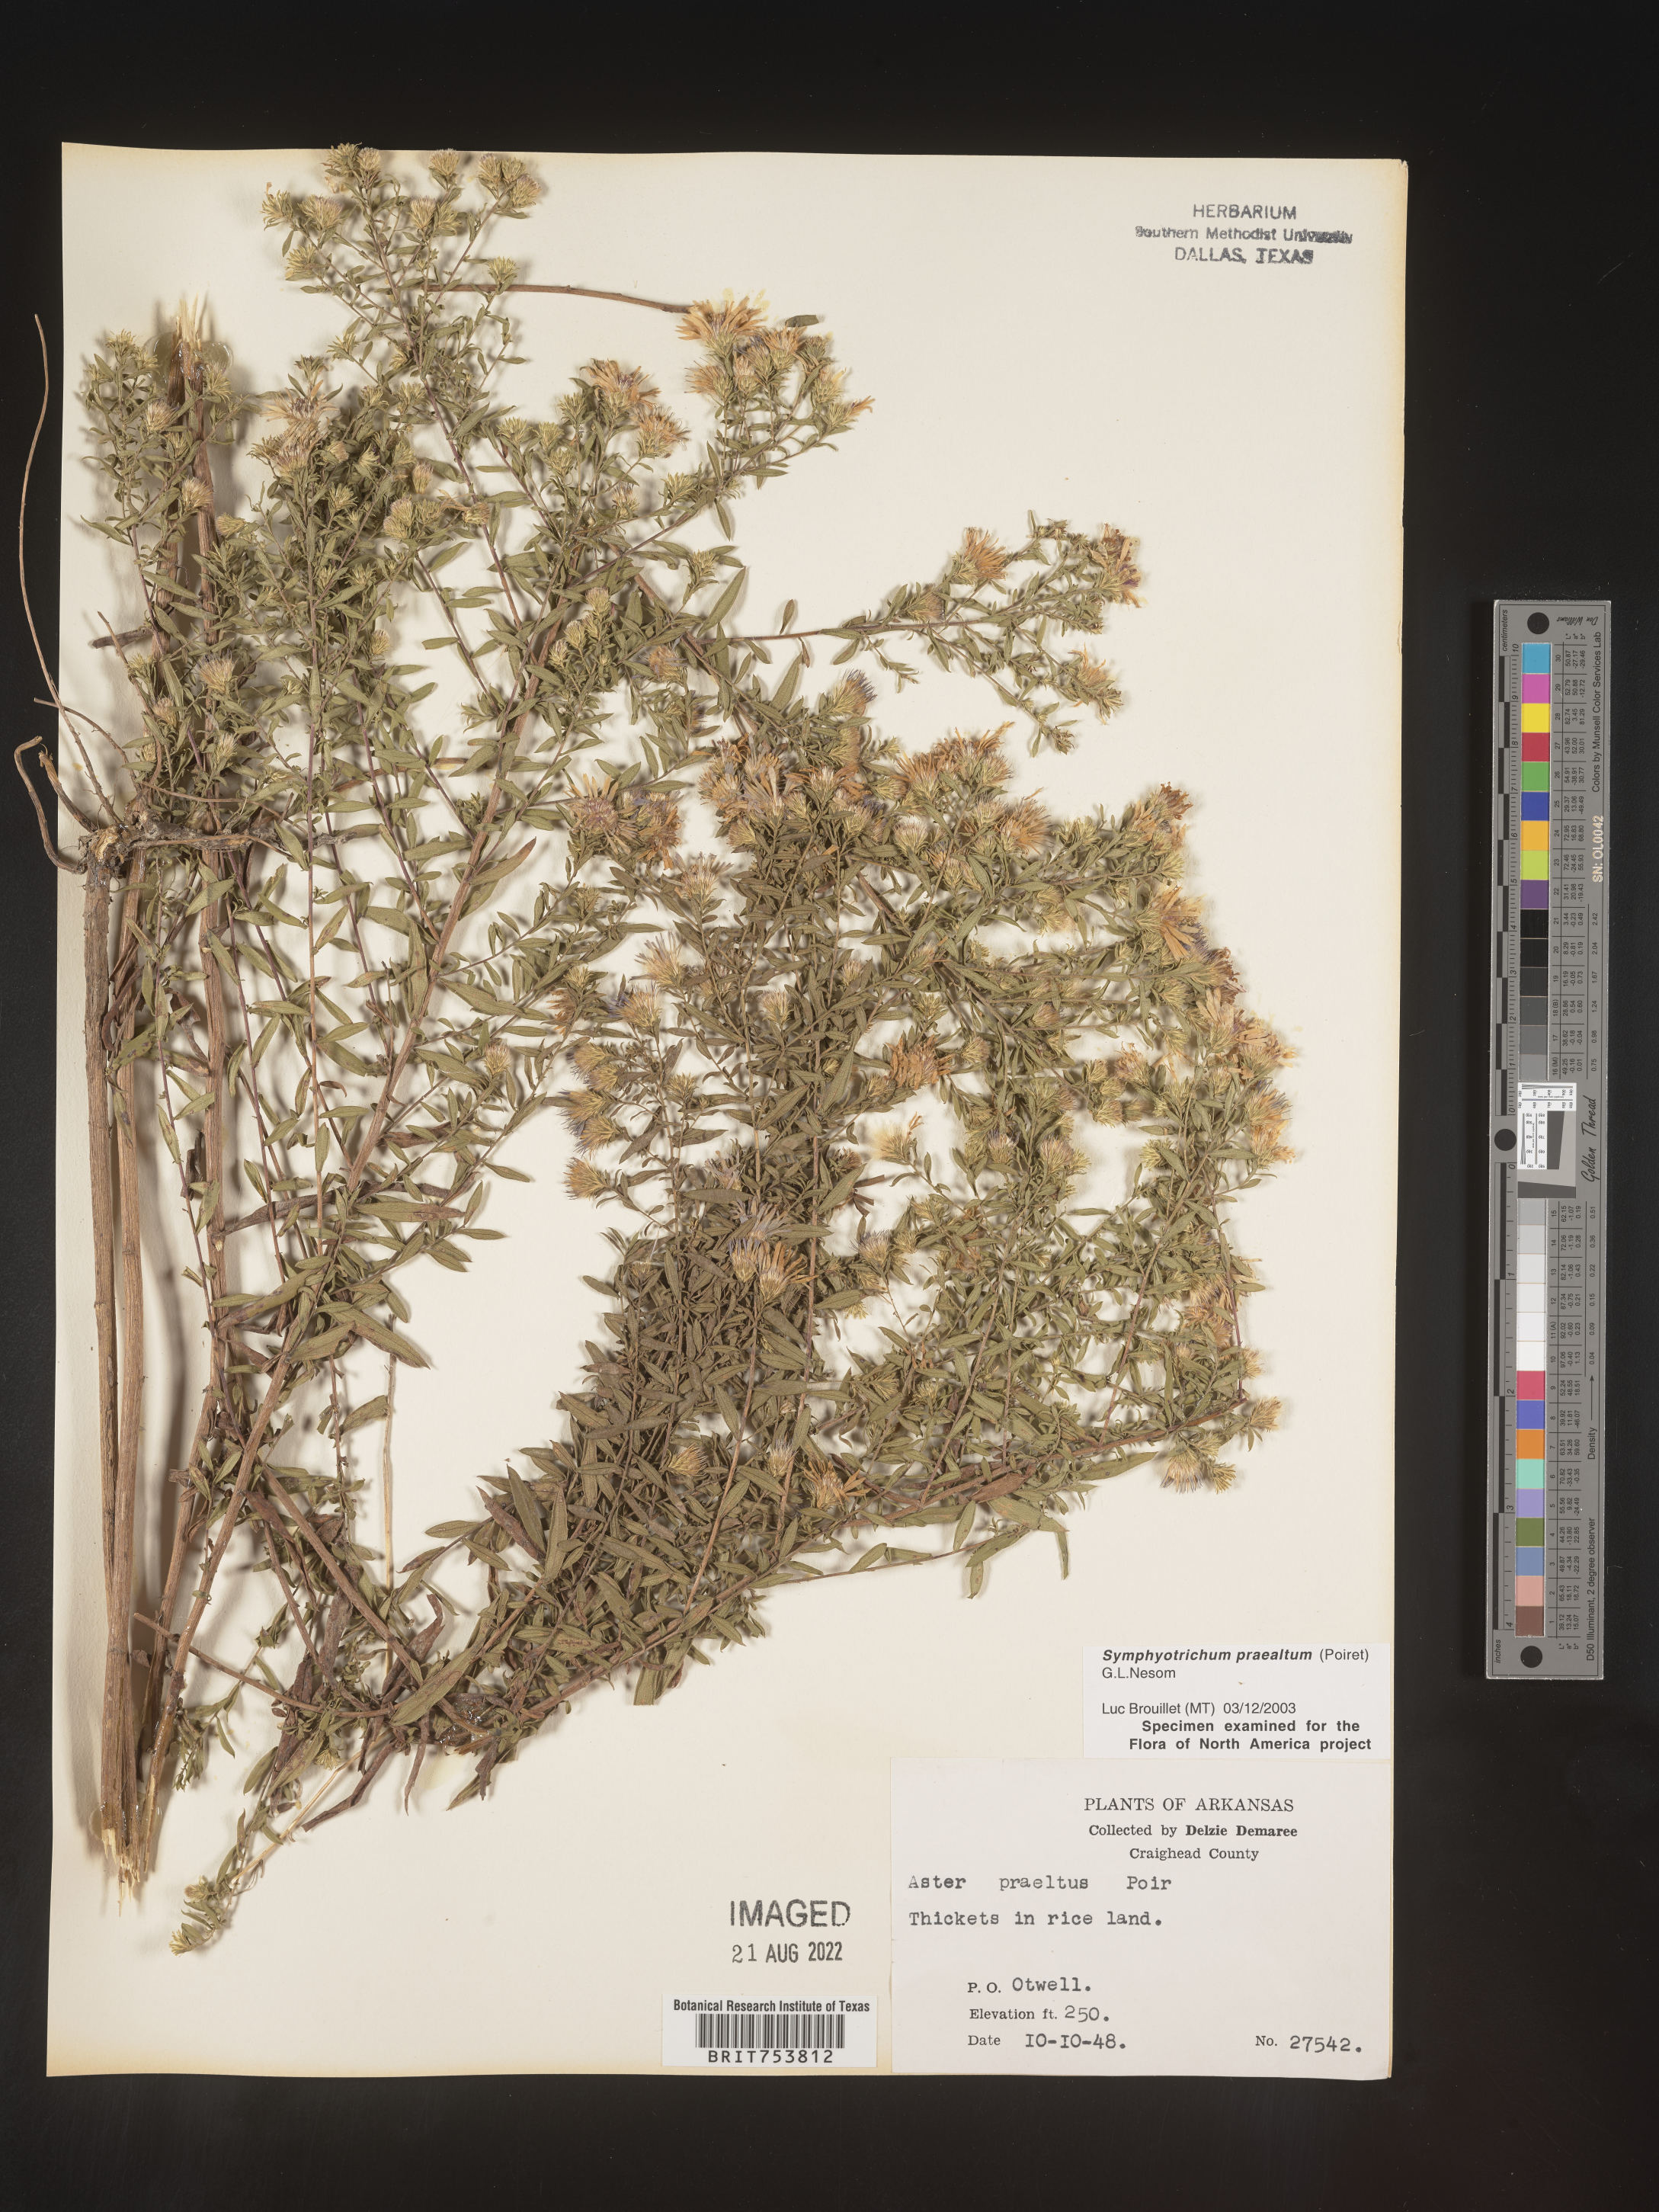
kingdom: Plantae
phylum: Tracheophyta
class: Magnoliopsida
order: Asterales
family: Asteraceae
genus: Symphyotrichum
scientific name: Symphyotrichum praealtum
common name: Willow aster
